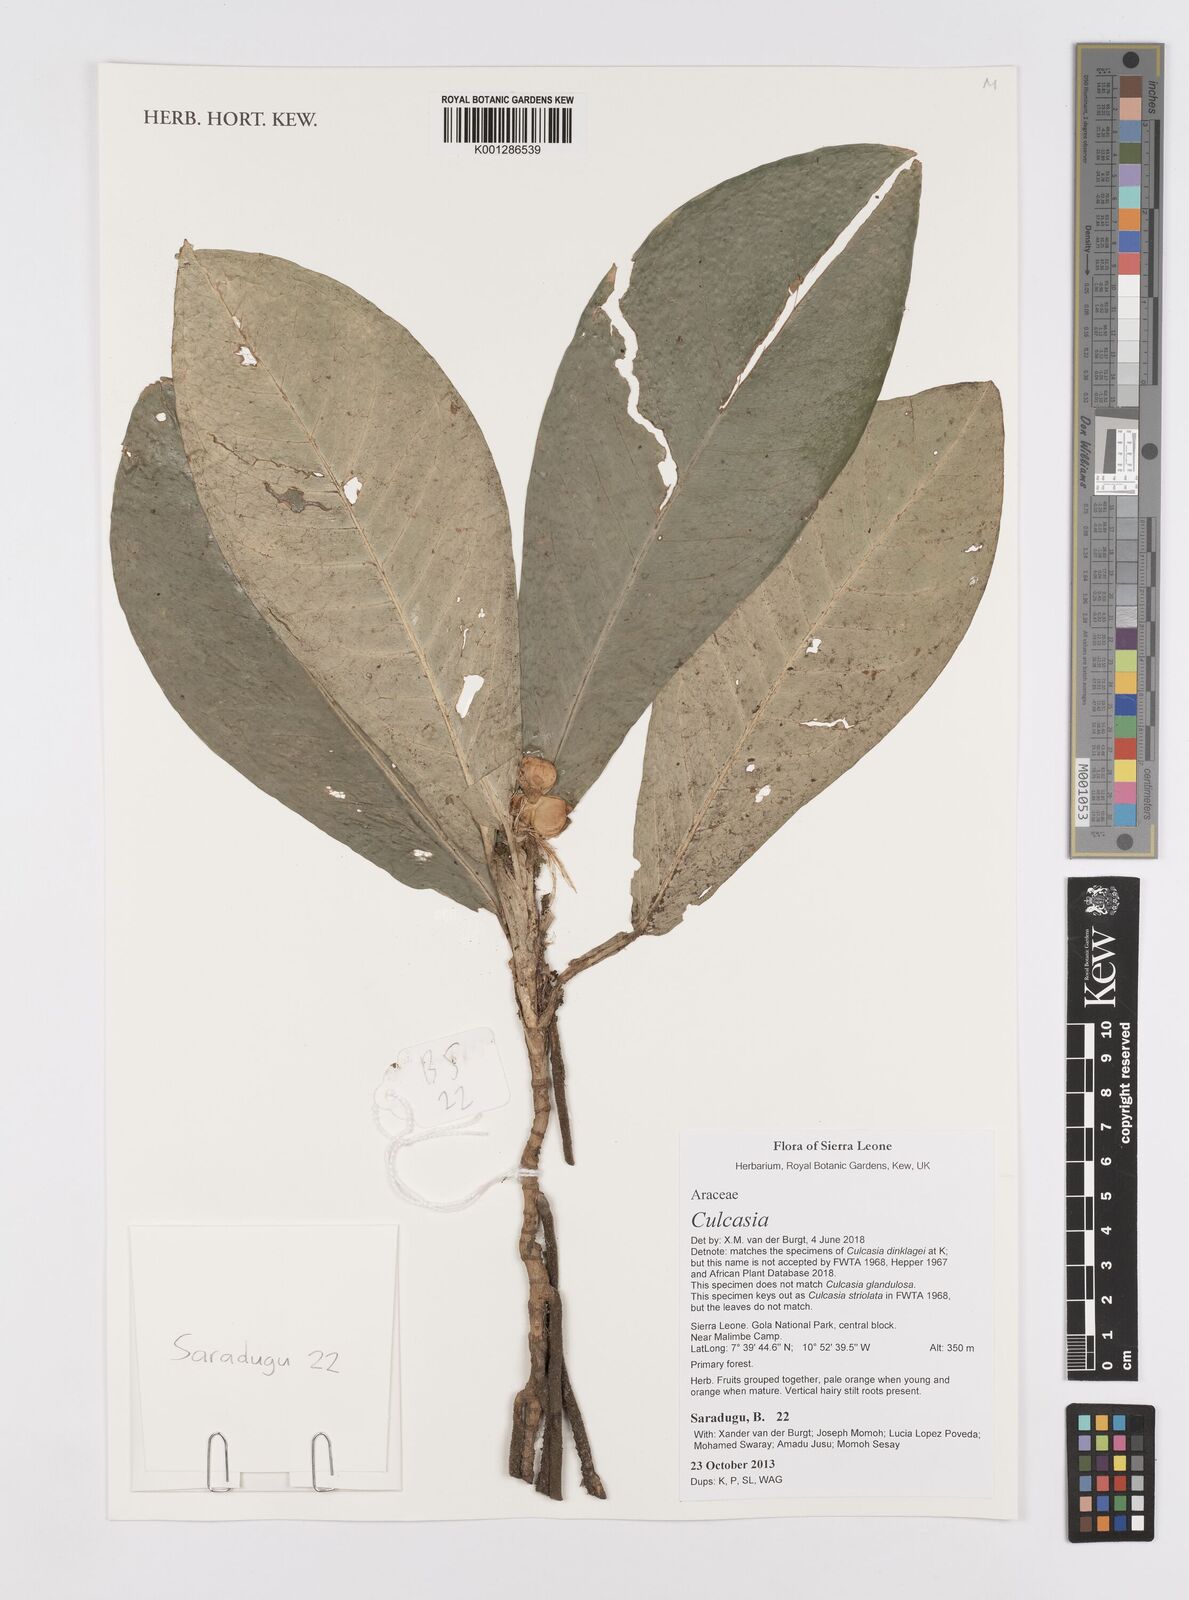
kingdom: Plantae
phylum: Tracheophyta
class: Liliopsida
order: Alismatales
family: Araceae
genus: Culcasia
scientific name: Culcasia
